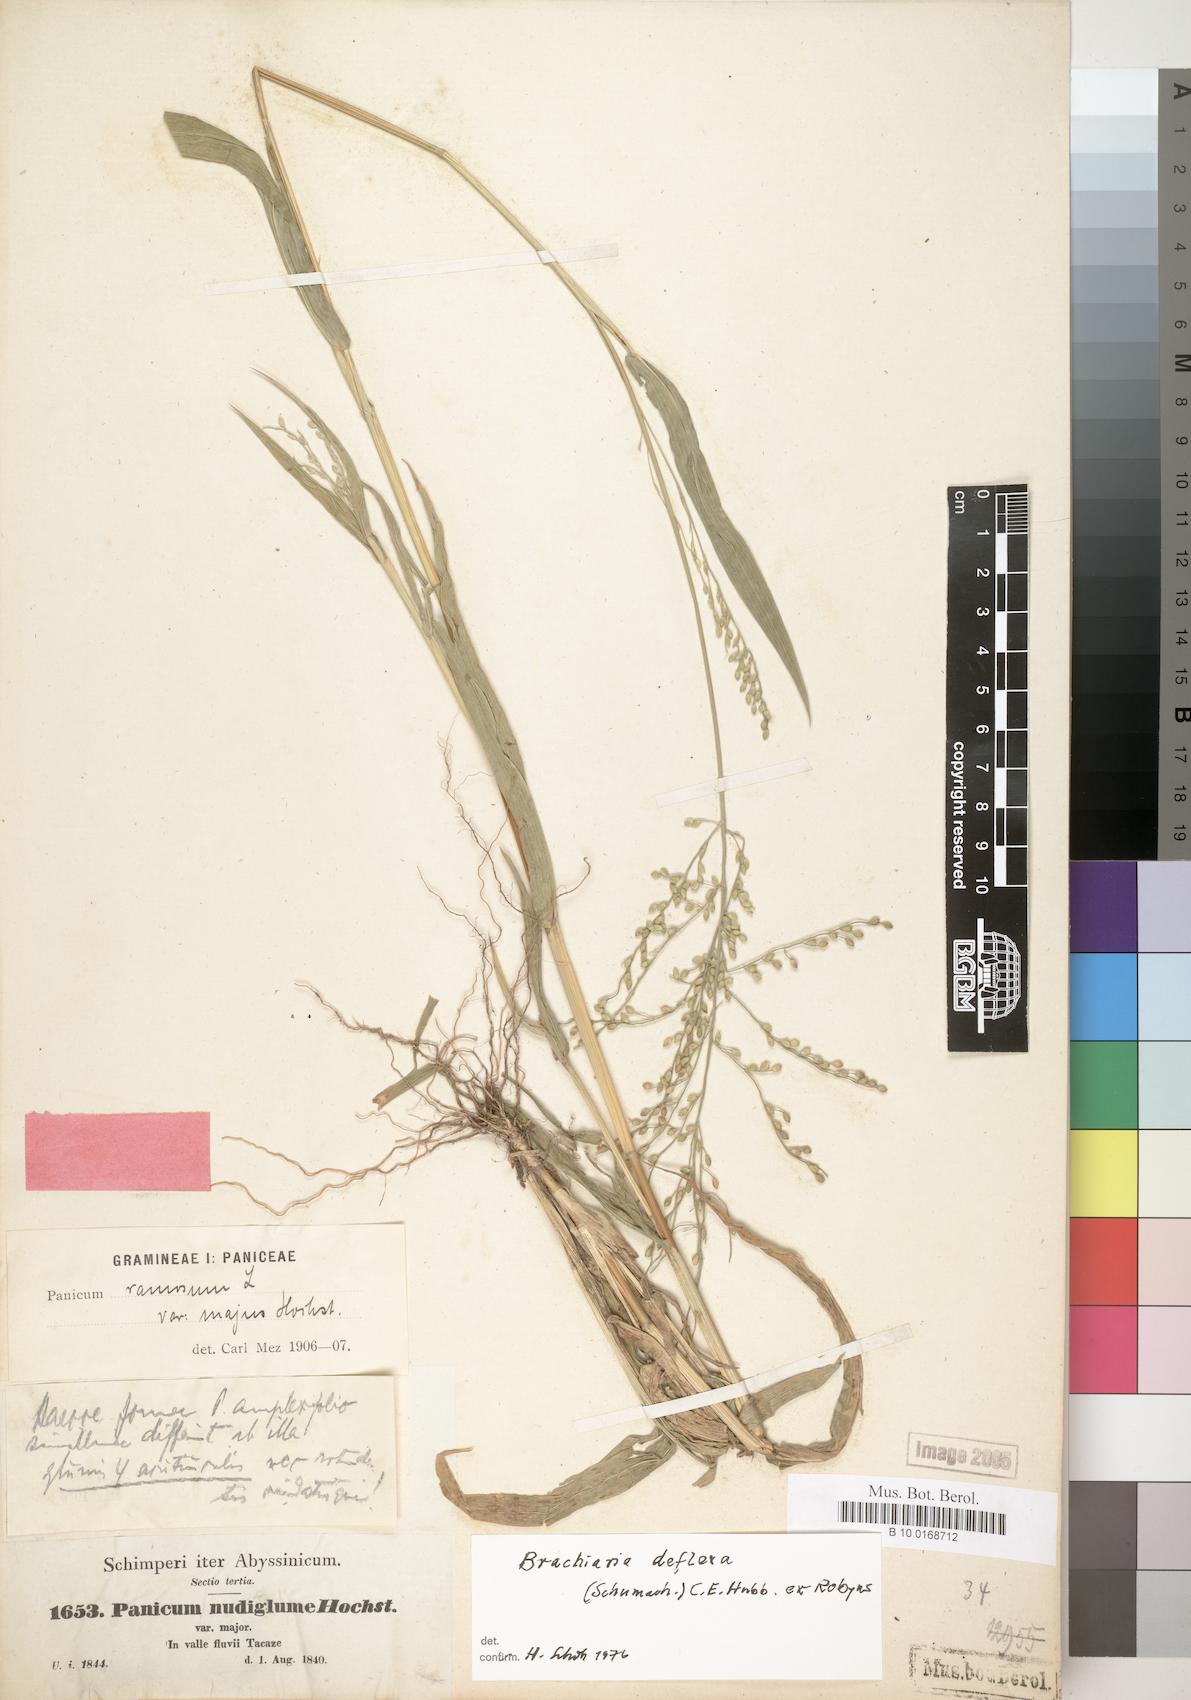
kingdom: Plantae
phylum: Tracheophyta
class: Liliopsida
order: Poales
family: Poaceae
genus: Urochloa
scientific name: Urochloa
